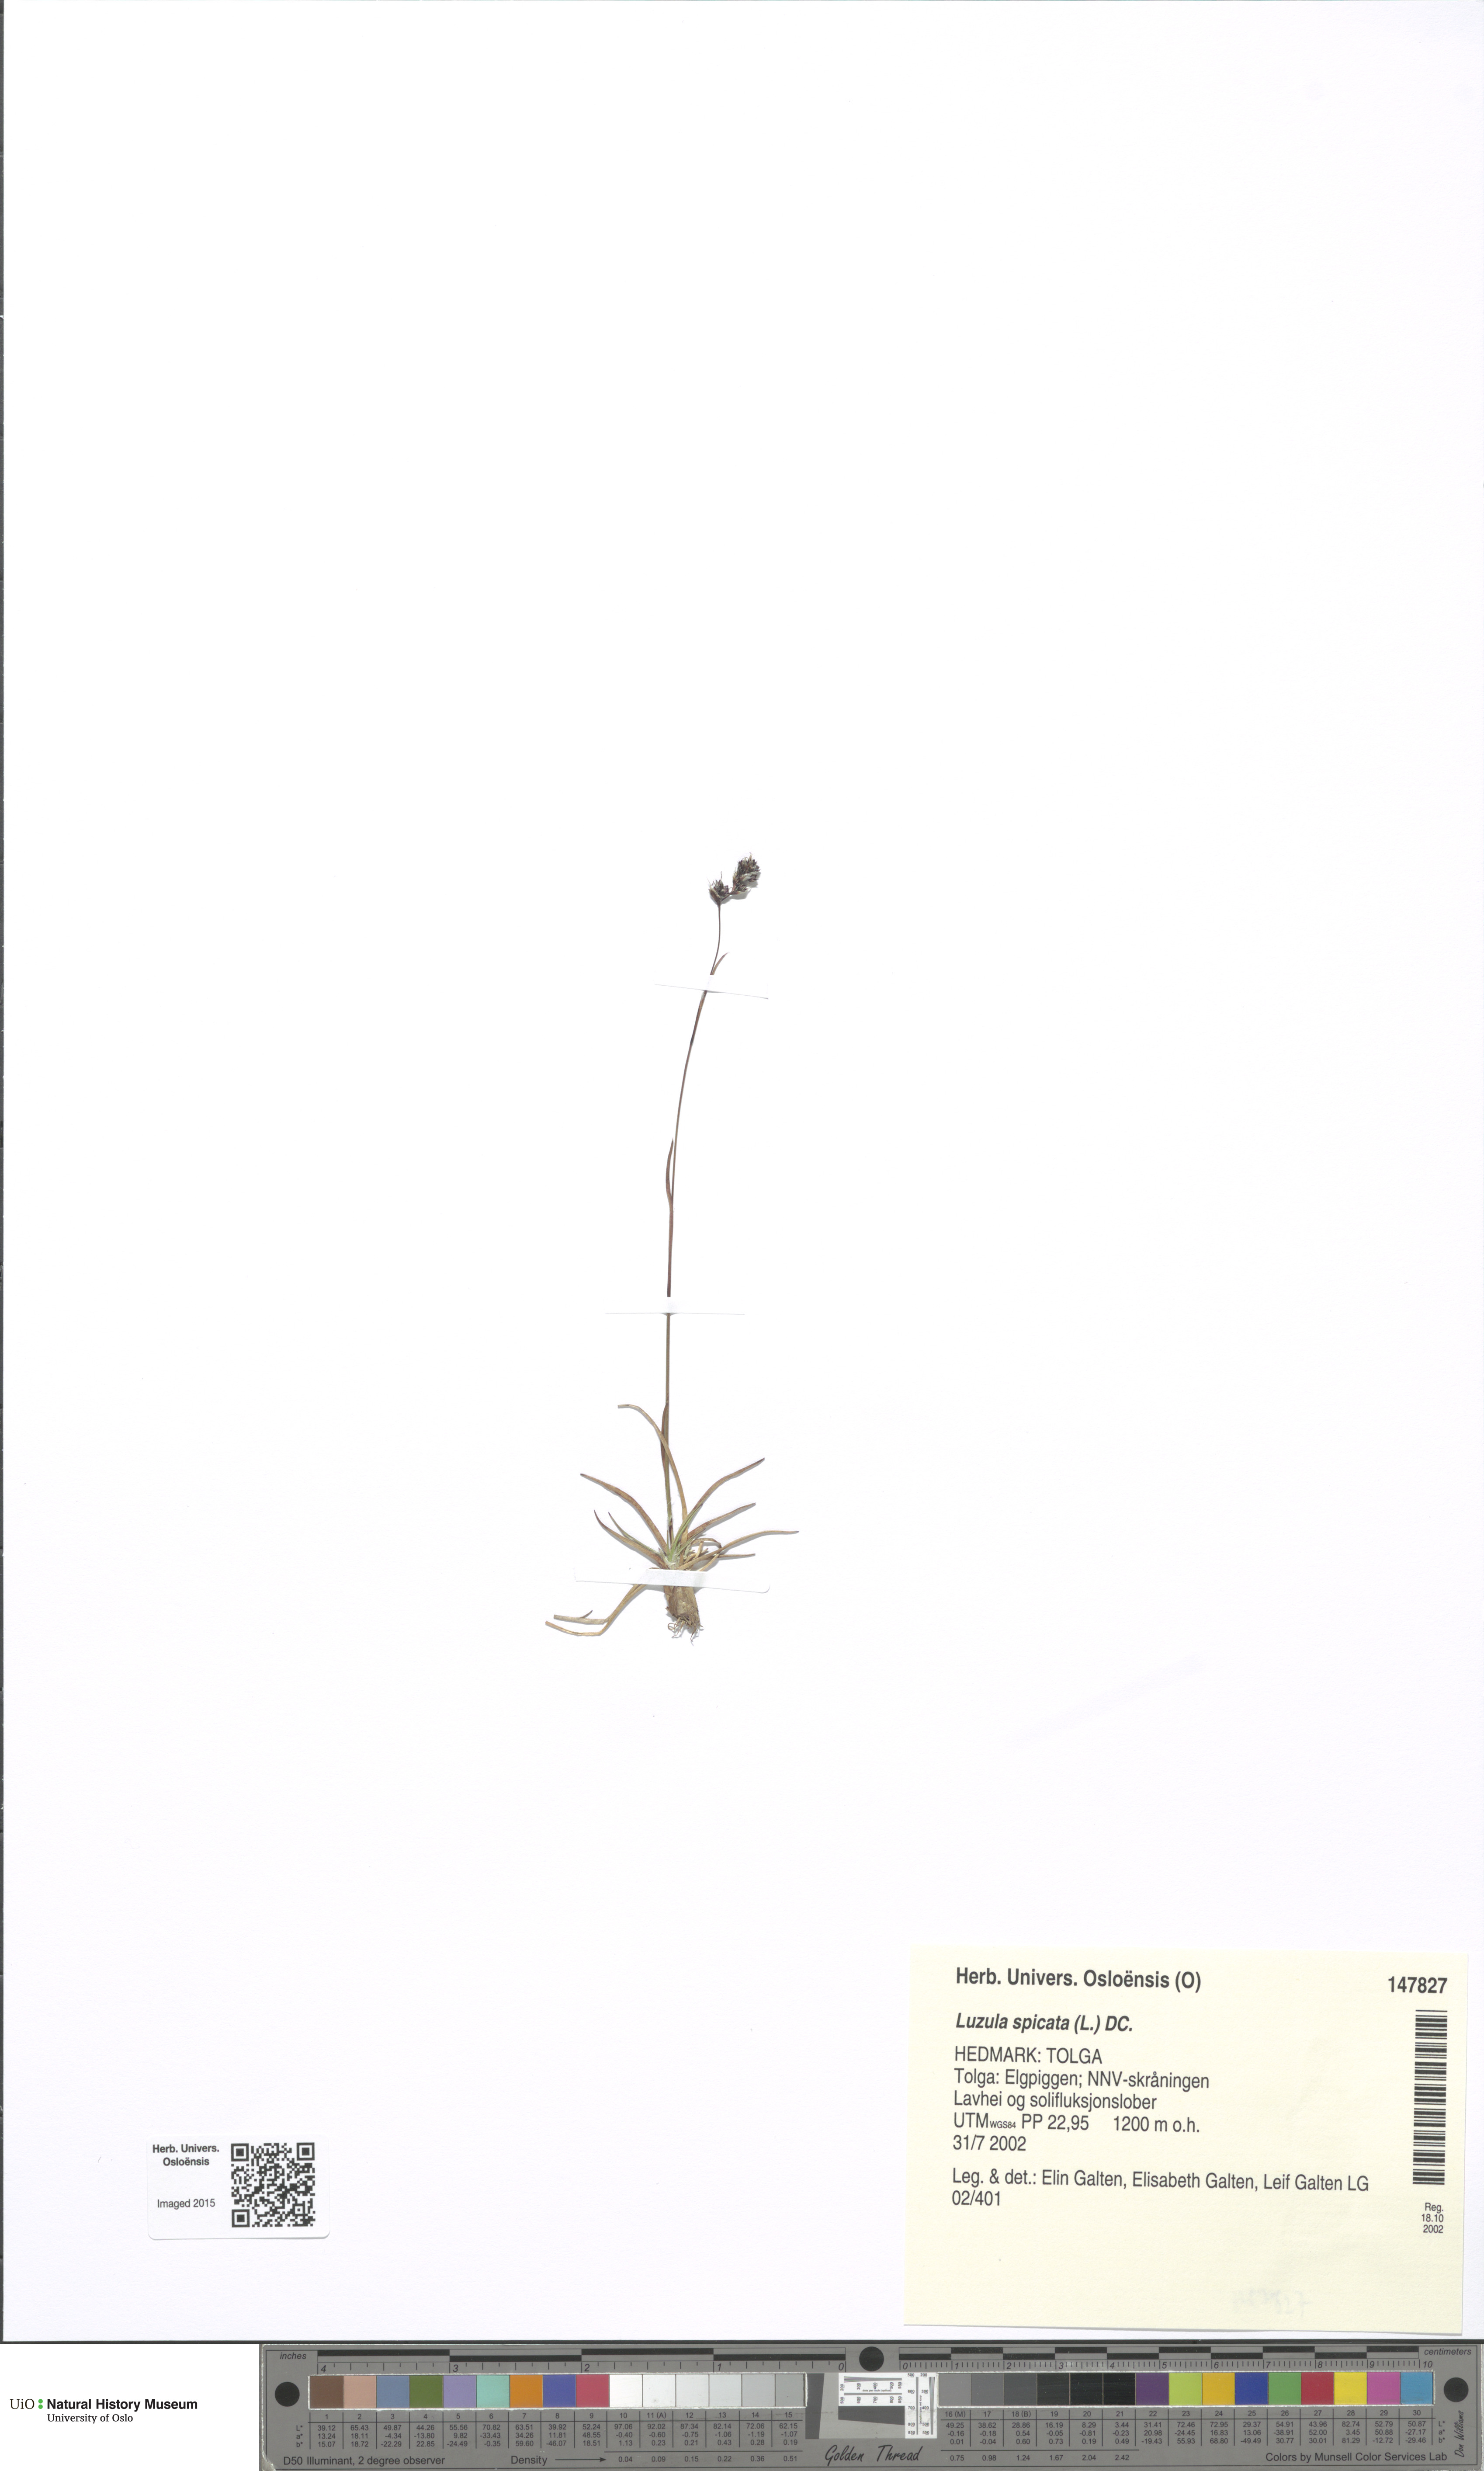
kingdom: Plantae
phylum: Tracheophyta
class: Liliopsida
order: Poales
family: Juncaceae
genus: Luzula
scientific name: Luzula spicata
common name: Spiked wood-rush
